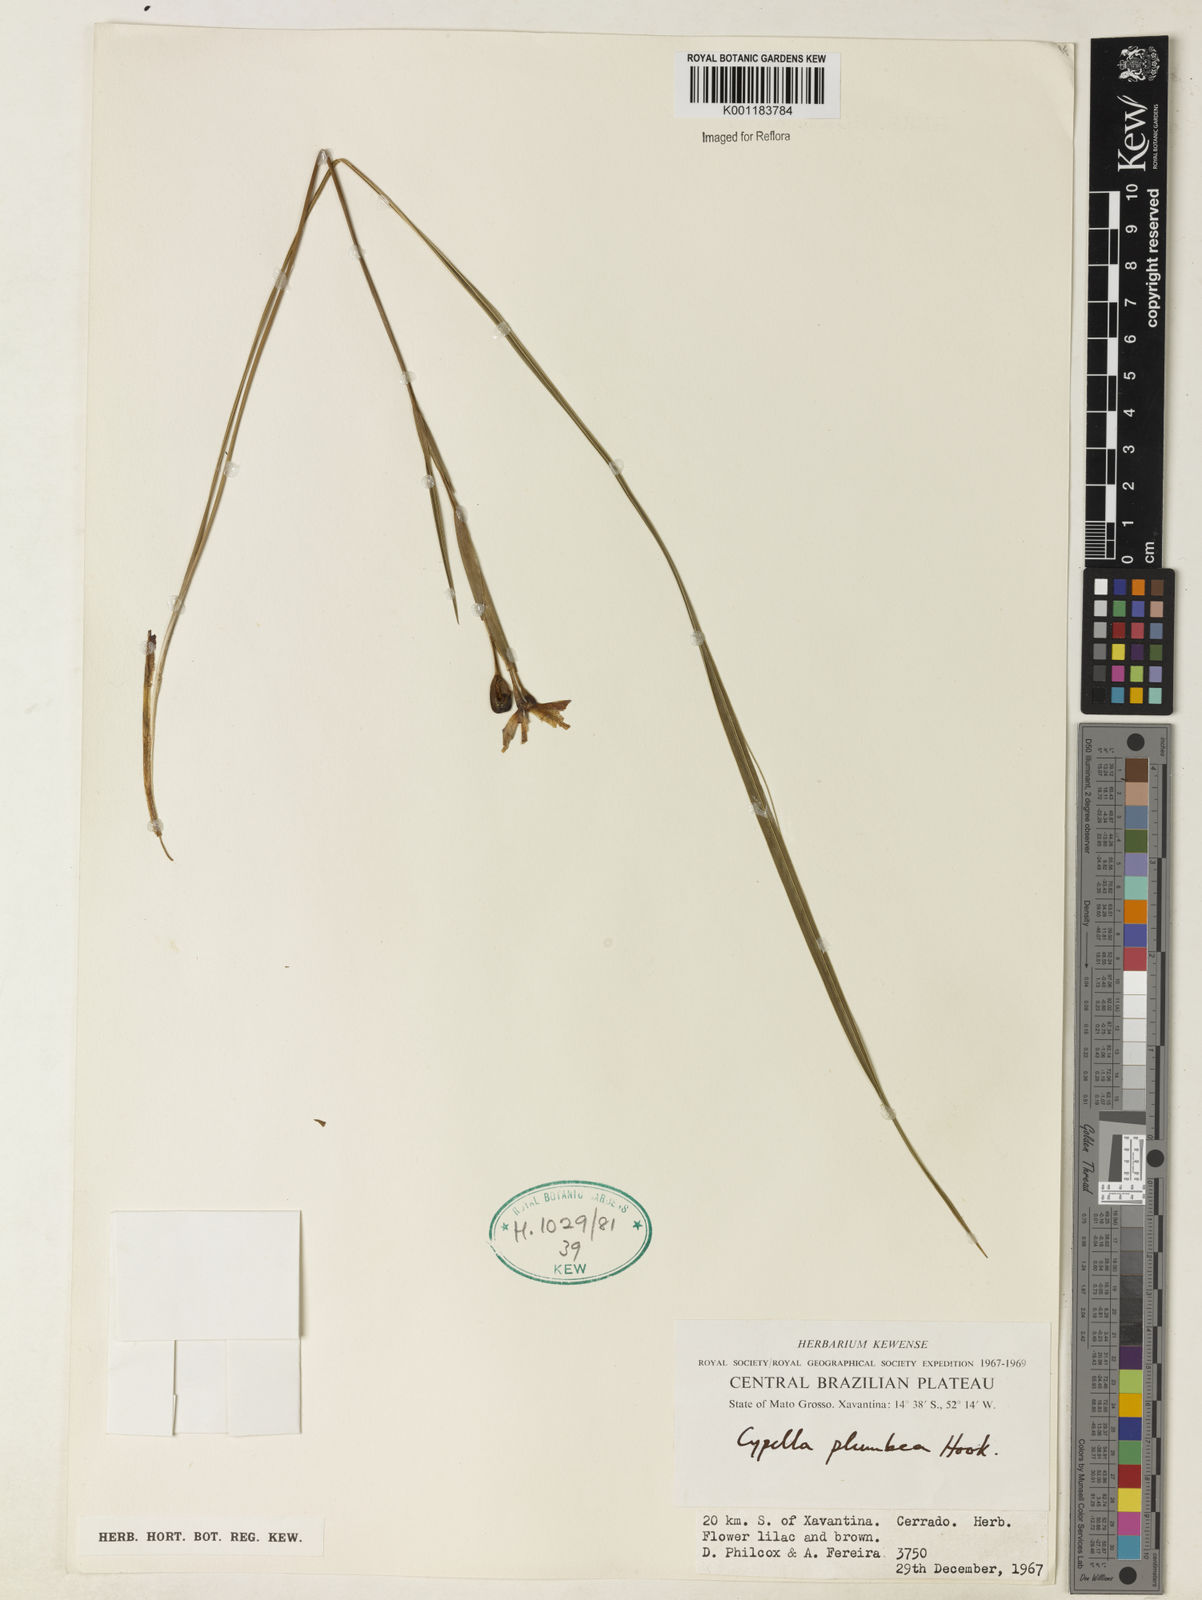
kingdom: Plantae
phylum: Tracheophyta
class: Liliopsida
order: Asparagales
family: Iridaceae
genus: Phalocallis
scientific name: Phalocallis coelestis
